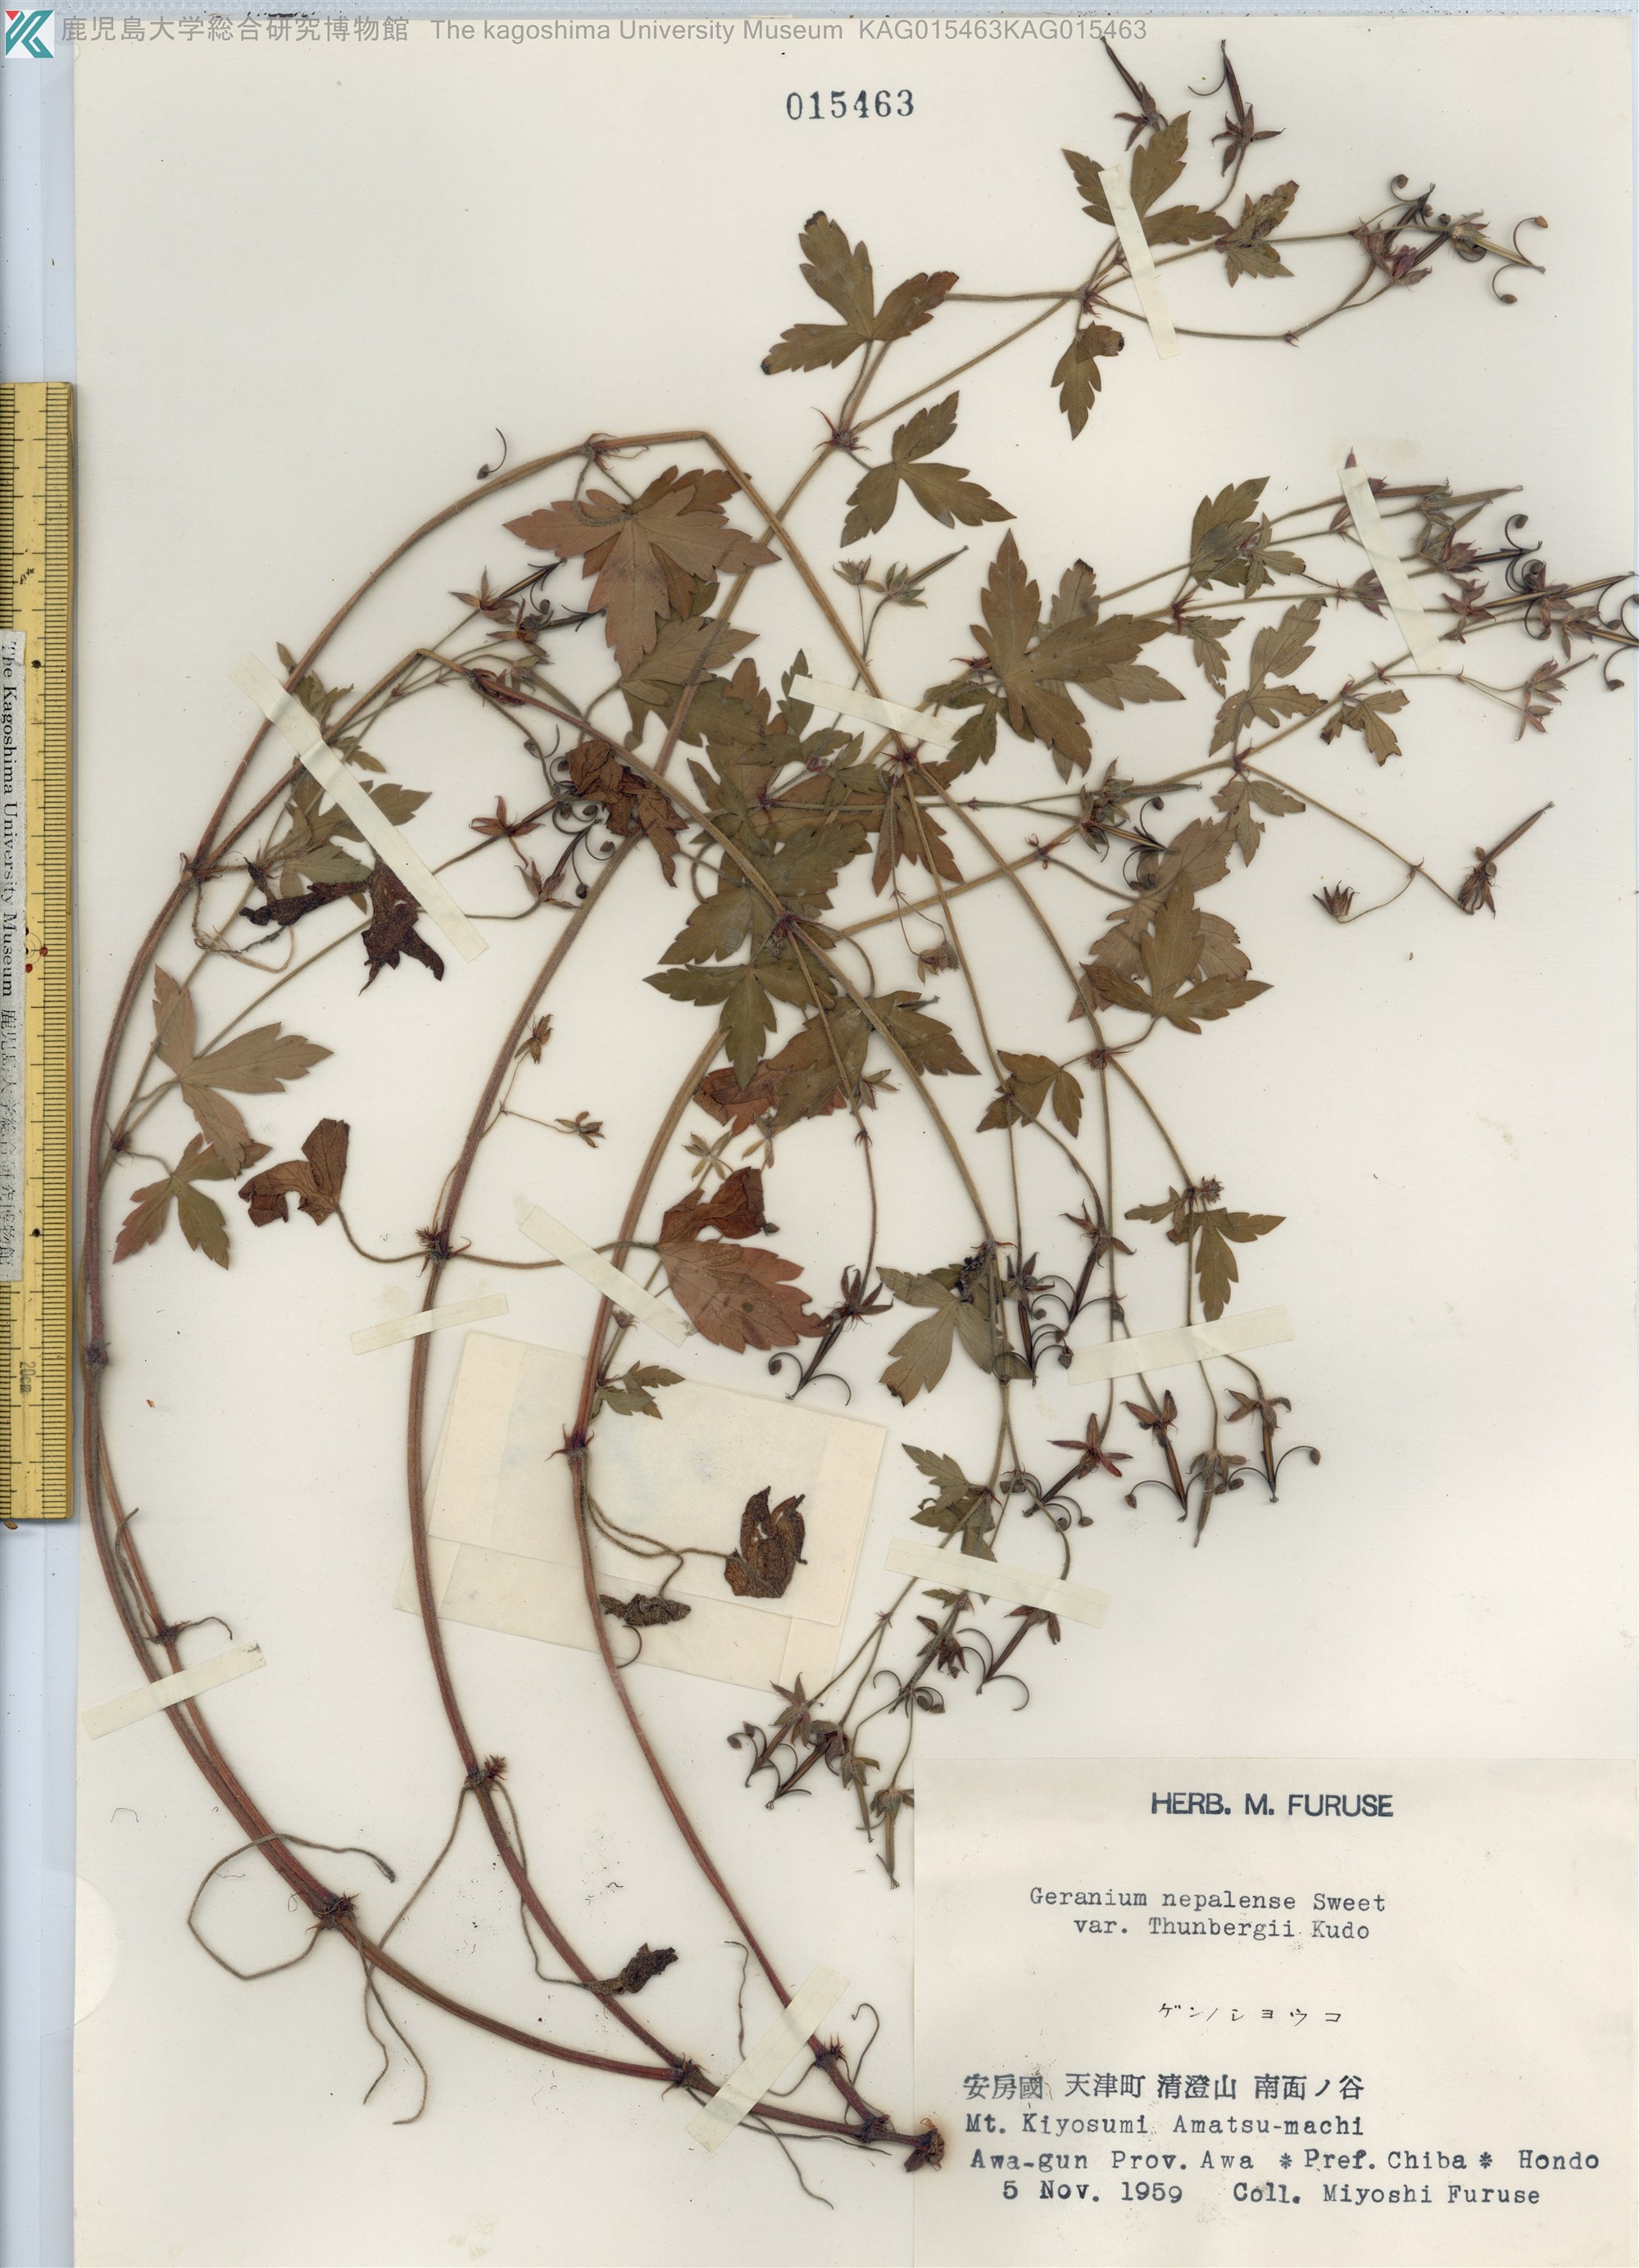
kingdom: Plantae
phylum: Tracheophyta
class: Magnoliopsida
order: Geraniales
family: Geraniaceae
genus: Geranium
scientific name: Geranium thunbergii
